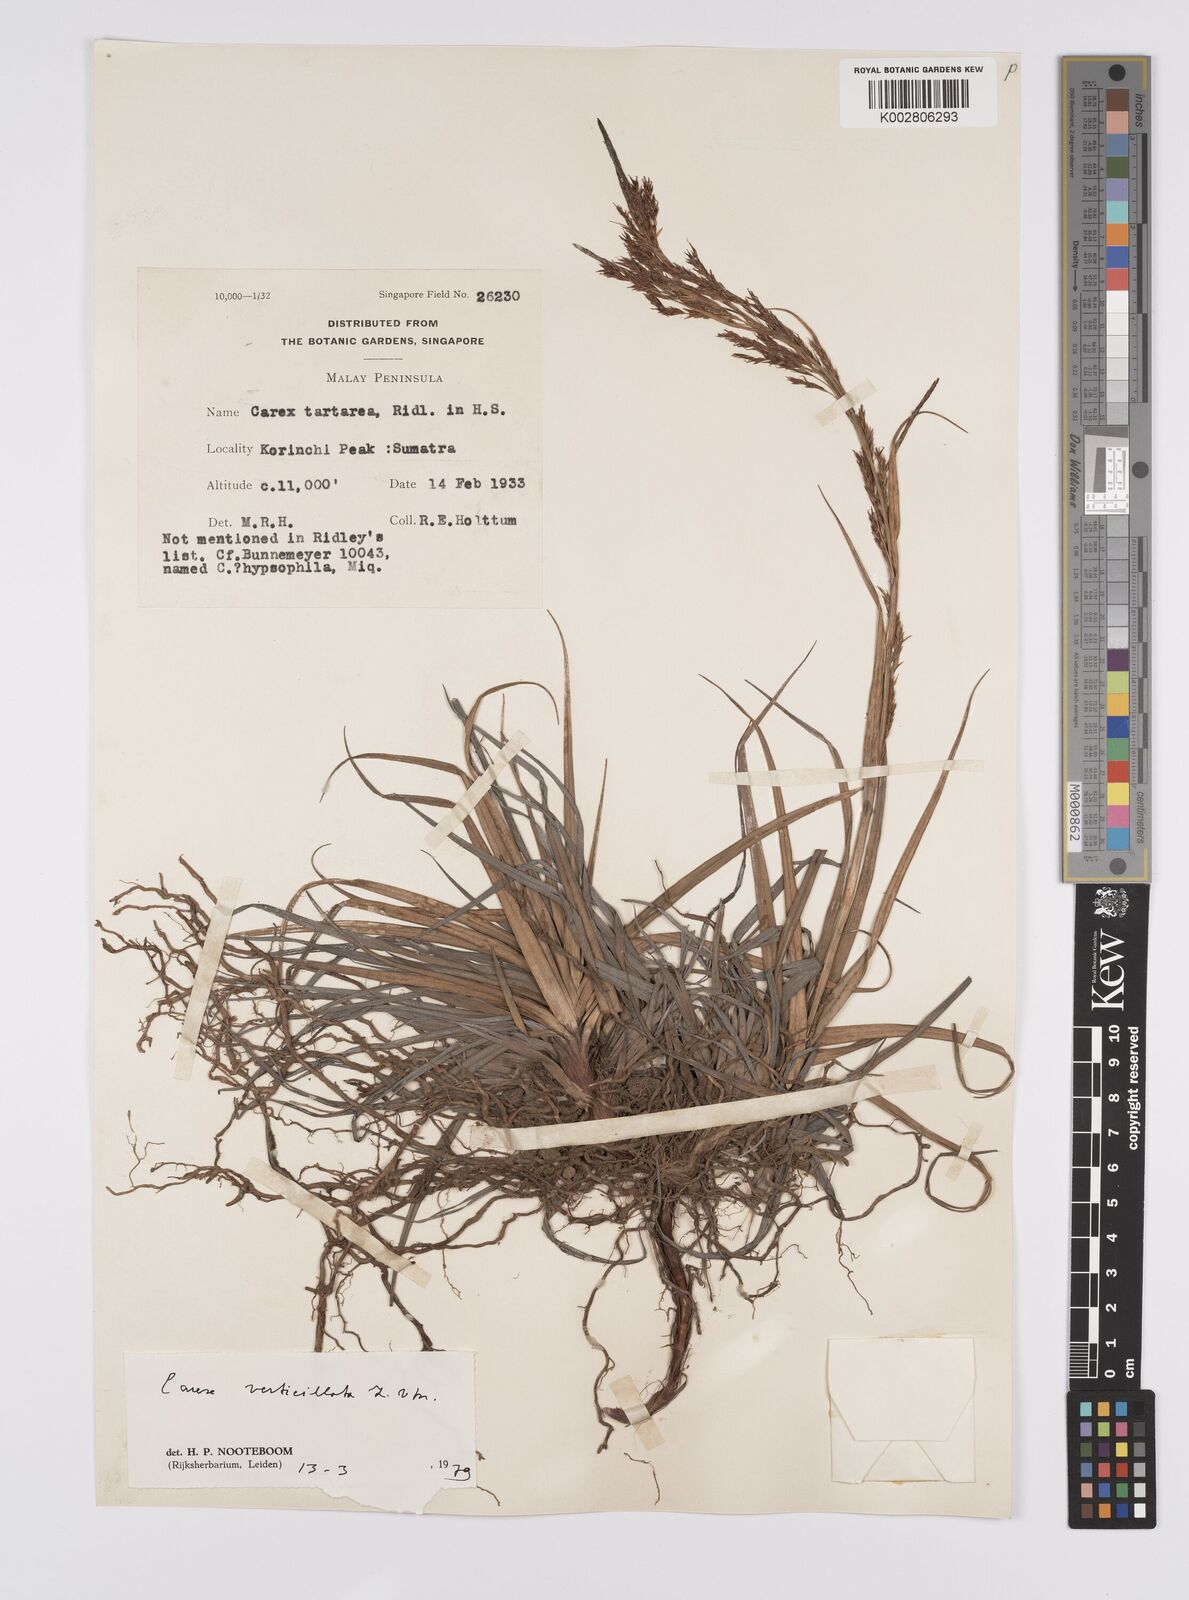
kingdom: Plantae
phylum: Tracheophyta
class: Liliopsida
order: Poales
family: Cyperaceae
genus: Carex
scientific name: Carex verticillata
